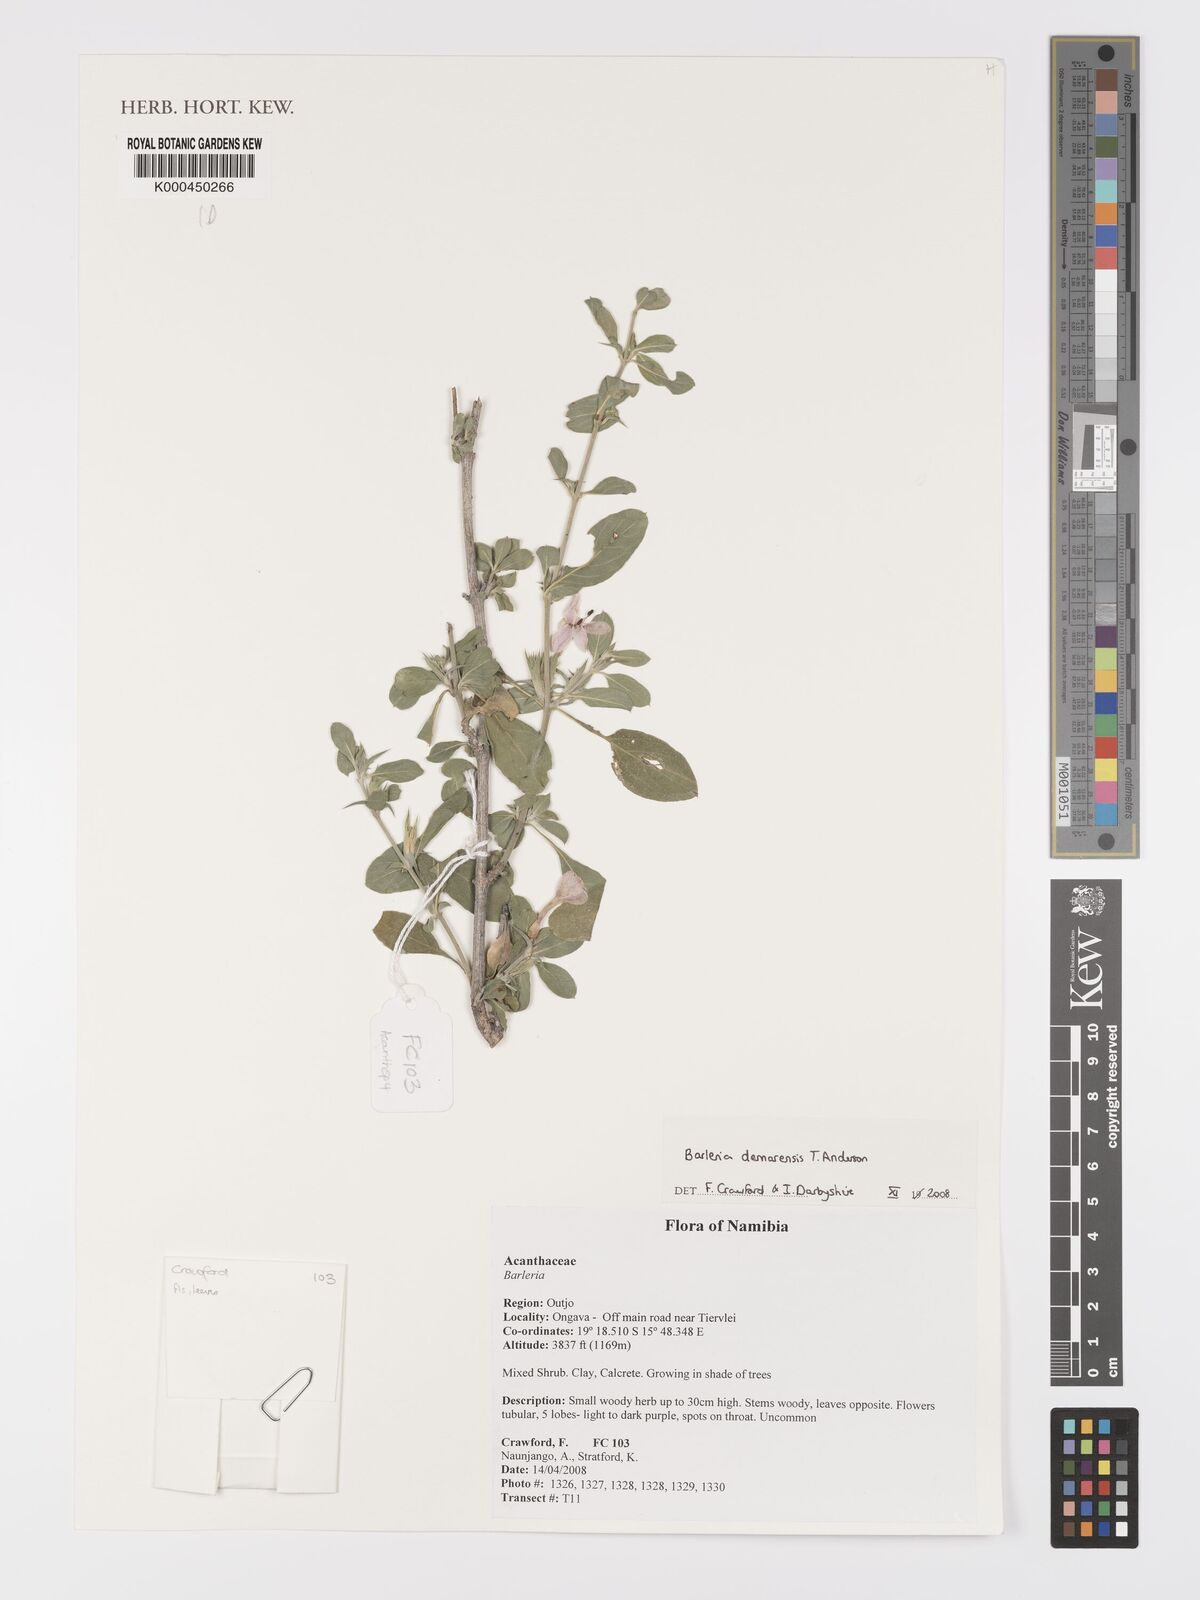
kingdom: Plantae
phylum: Tracheophyta
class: Magnoliopsida
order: Lamiales
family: Acanthaceae
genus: Barleria
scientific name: Barleria
